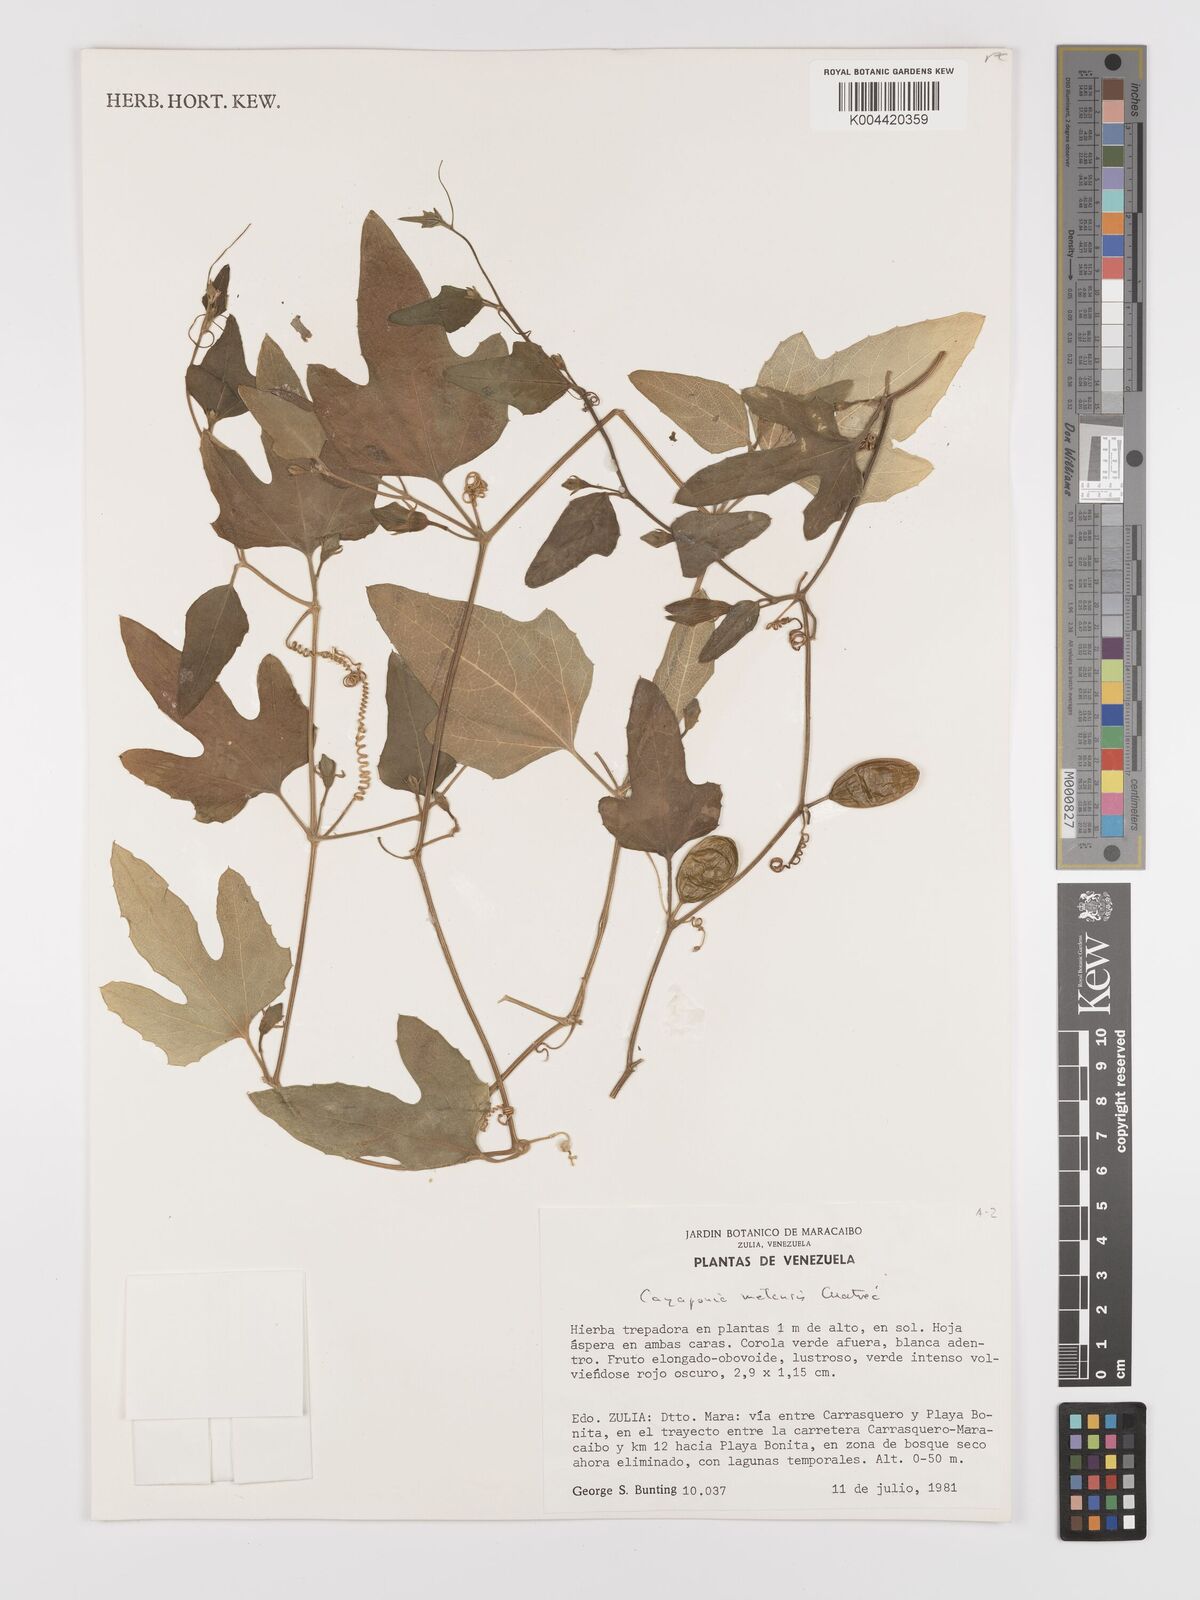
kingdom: Plantae
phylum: Tracheophyta
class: Magnoliopsida
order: Cucurbitales
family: Cucurbitaceae
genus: Cayaponia
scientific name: Cayaponia podantha
